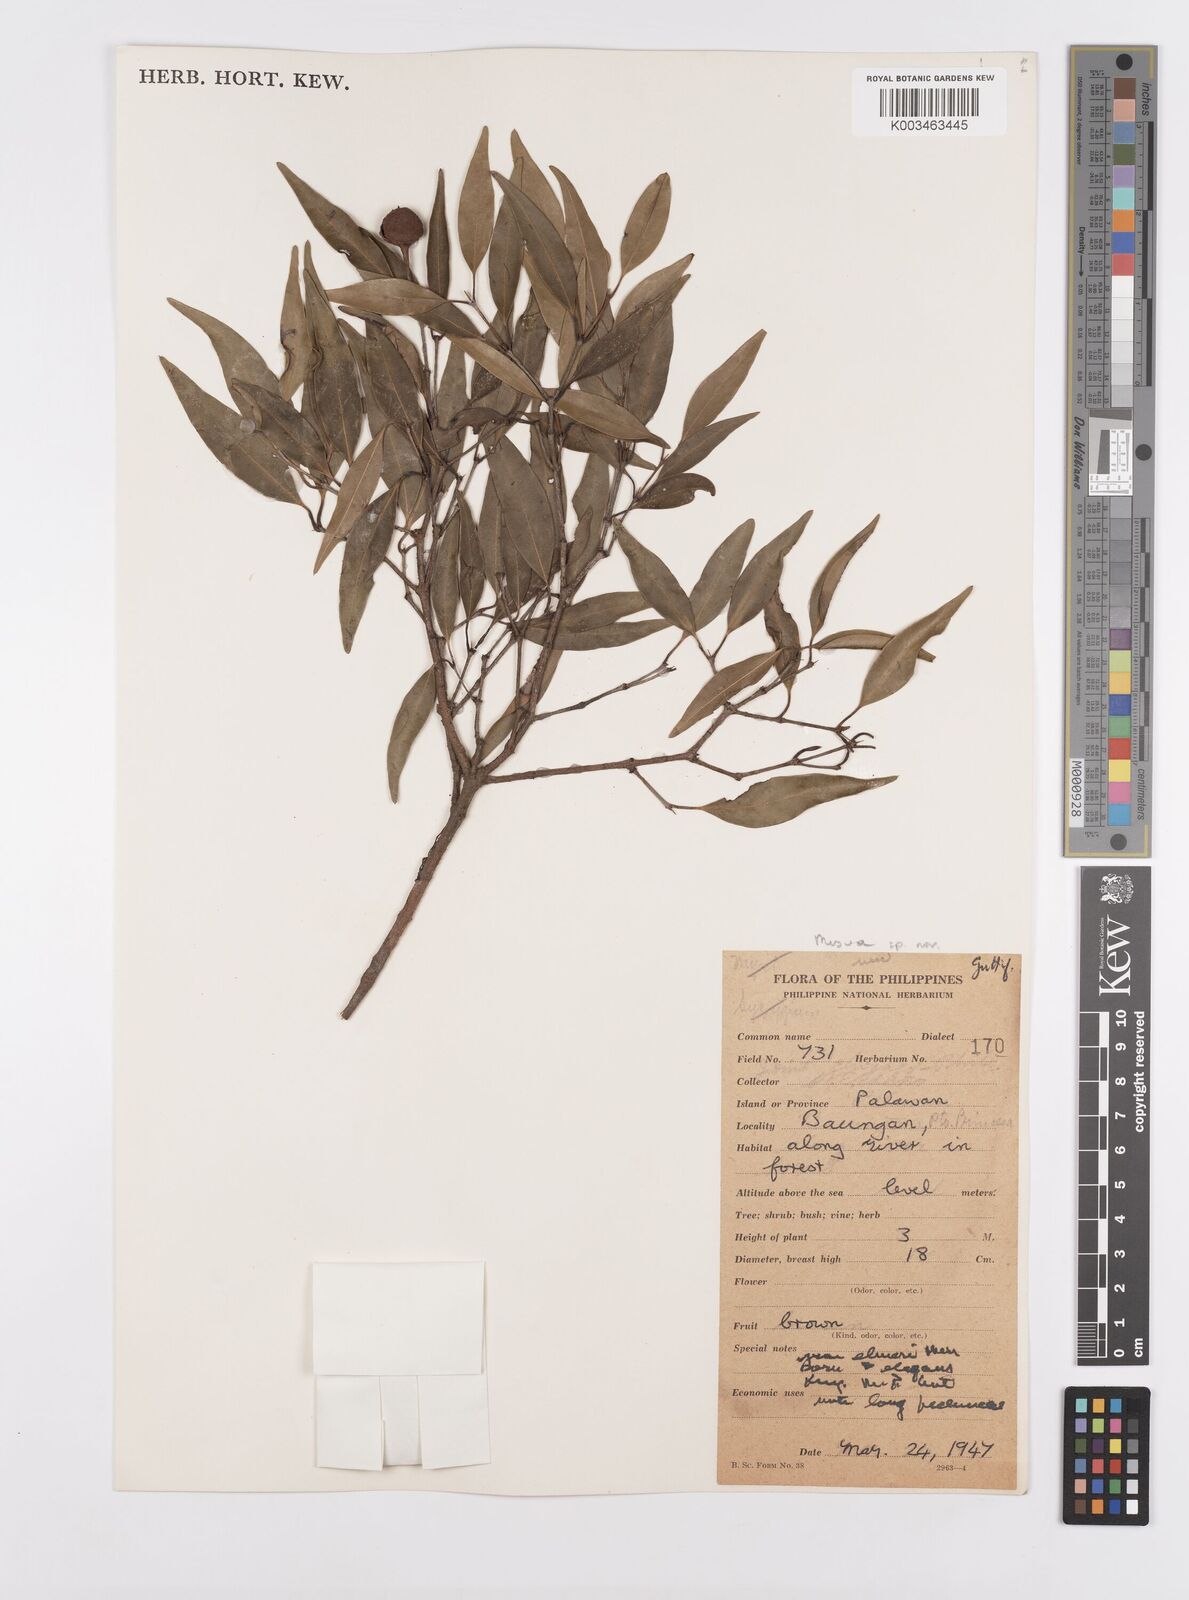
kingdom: Plantae
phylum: Tracheophyta
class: Magnoliopsida
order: Malpighiales
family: Calophyllaceae
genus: Kayea
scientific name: Kayea
